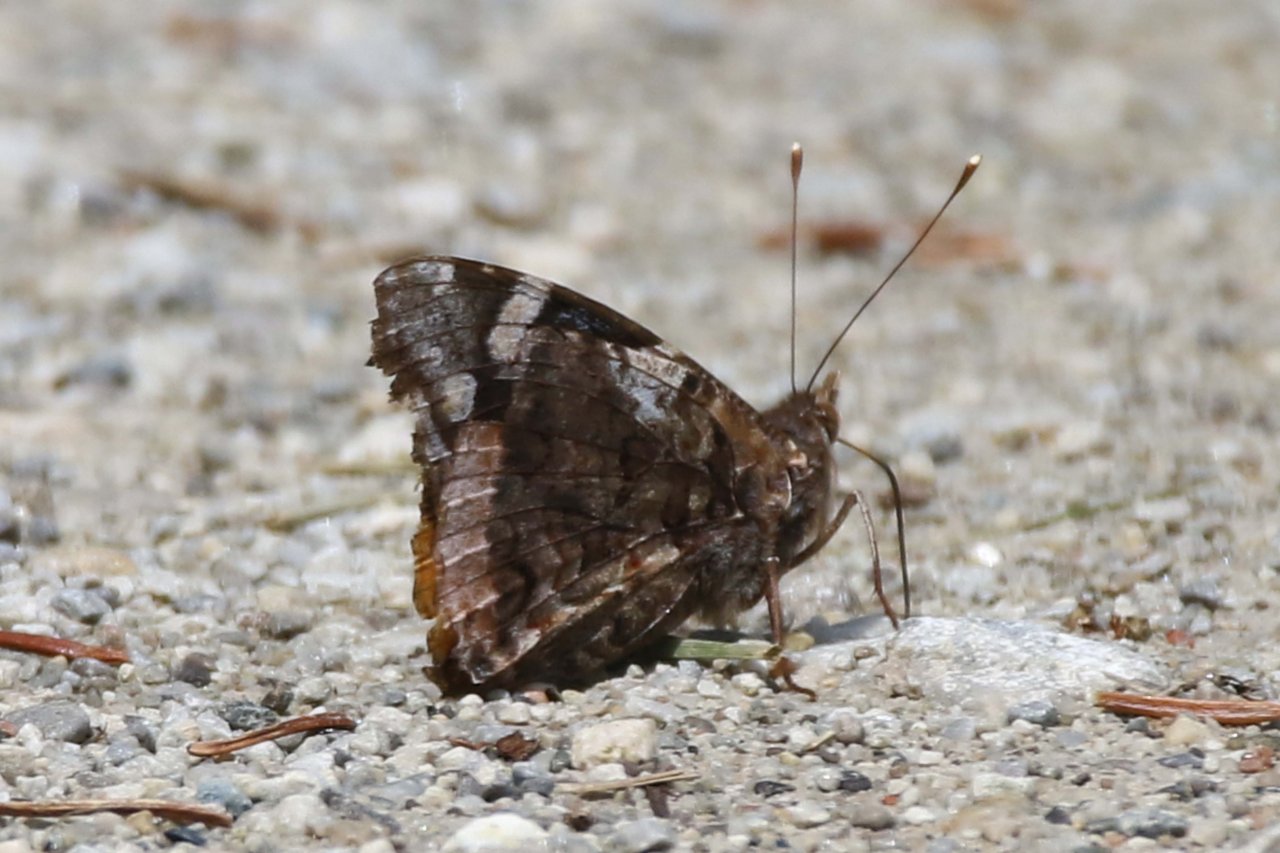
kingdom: Animalia
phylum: Arthropoda
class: Insecta
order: Lepidoptera
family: Nymphalidae
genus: Vanessa
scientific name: Vanessa atalanta
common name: Red Admiral
